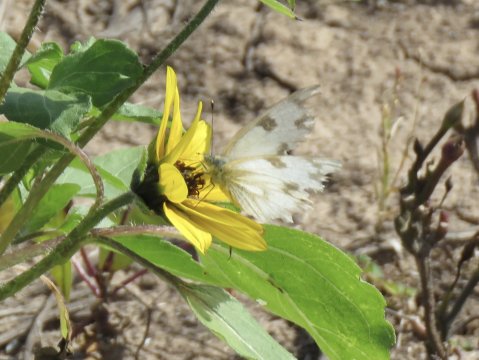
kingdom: Animalia
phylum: Arthropoda
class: Insecta
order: Lepidoptera
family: Pieridae
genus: Pontia
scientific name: Pontia protodice
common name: Checkered White
